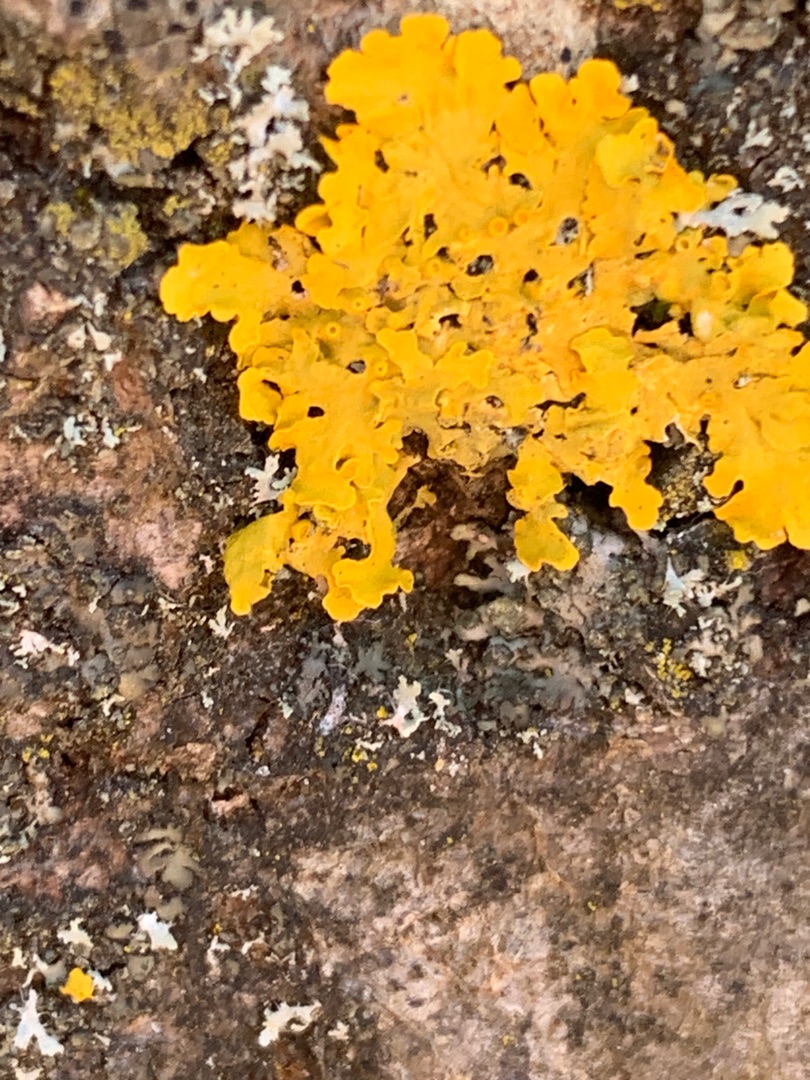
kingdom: Fungi
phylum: Ascomycota
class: Lecanoromycetes
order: Teloschistales
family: Teloschistaceae
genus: Xanthoria
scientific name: Xanthoria parietina
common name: Almindelig væggelav
